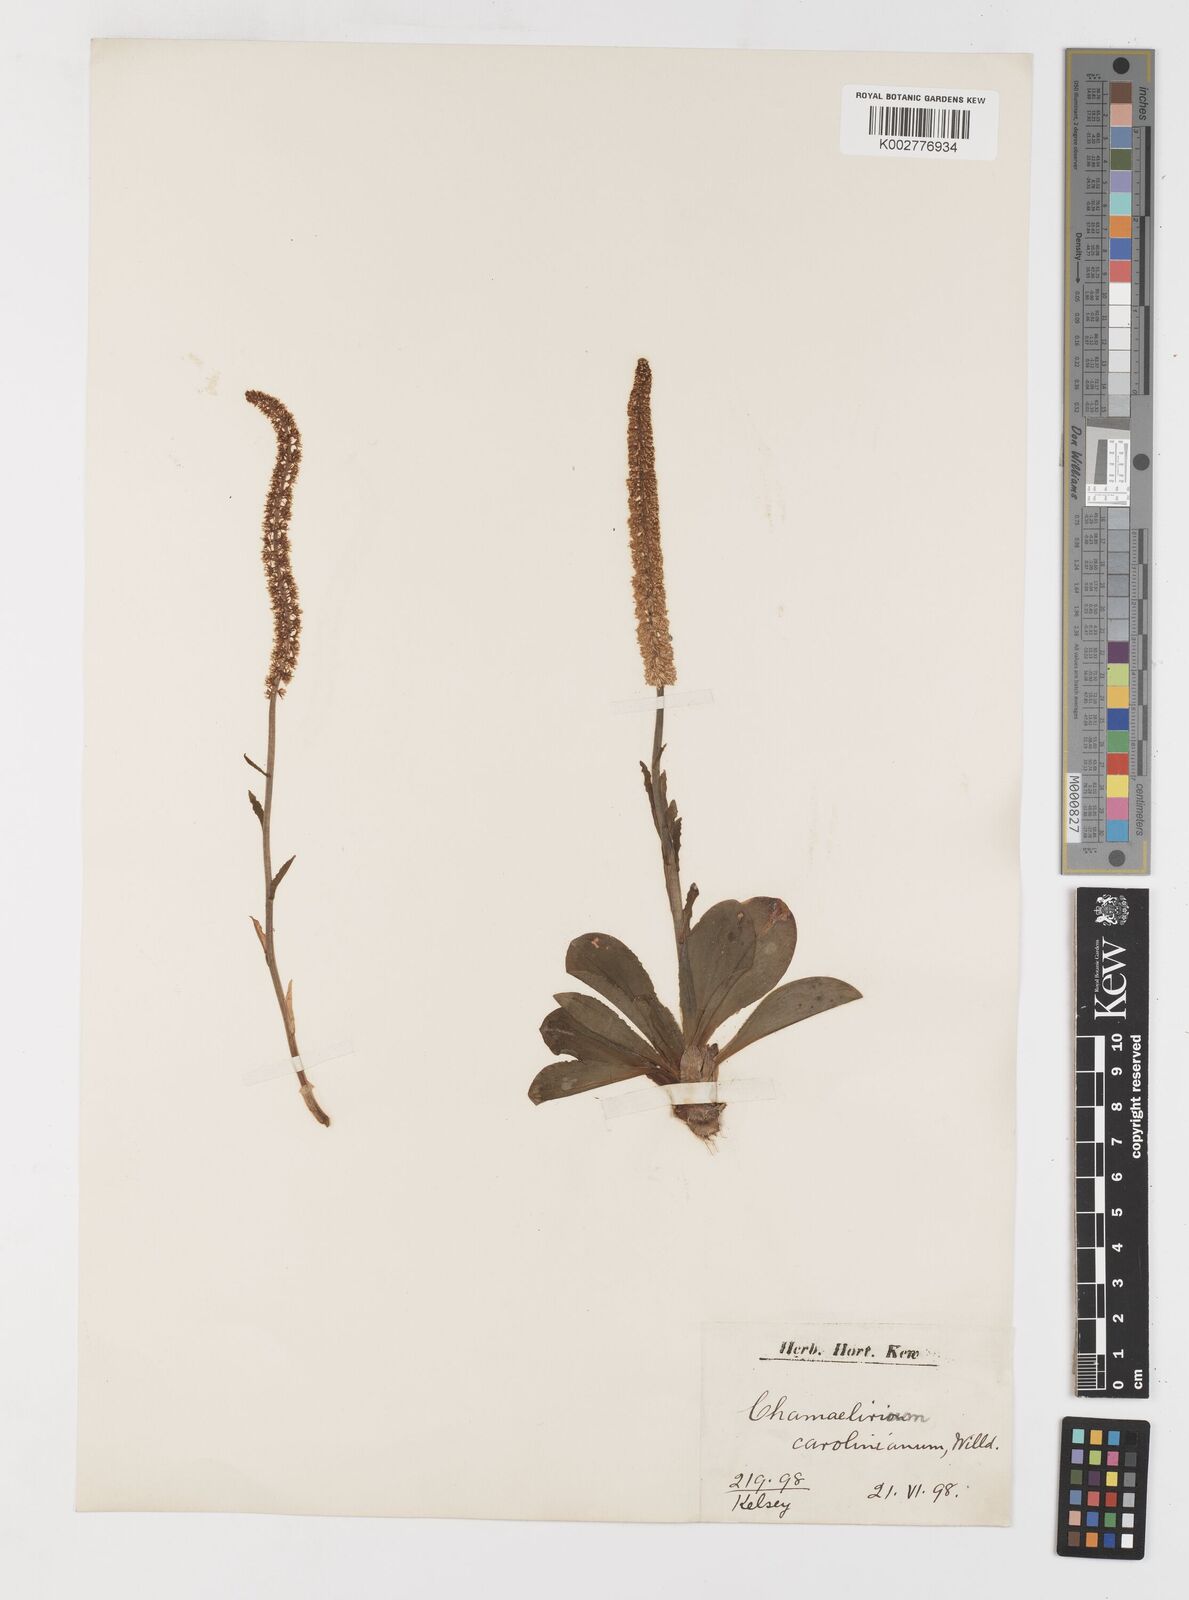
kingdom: Plantae
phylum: Tracheophyta
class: Liliopsida
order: Liliales
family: Melanthiaceae
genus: Chamaelirium
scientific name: Chamaelirium luteum
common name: Fairy-wand
